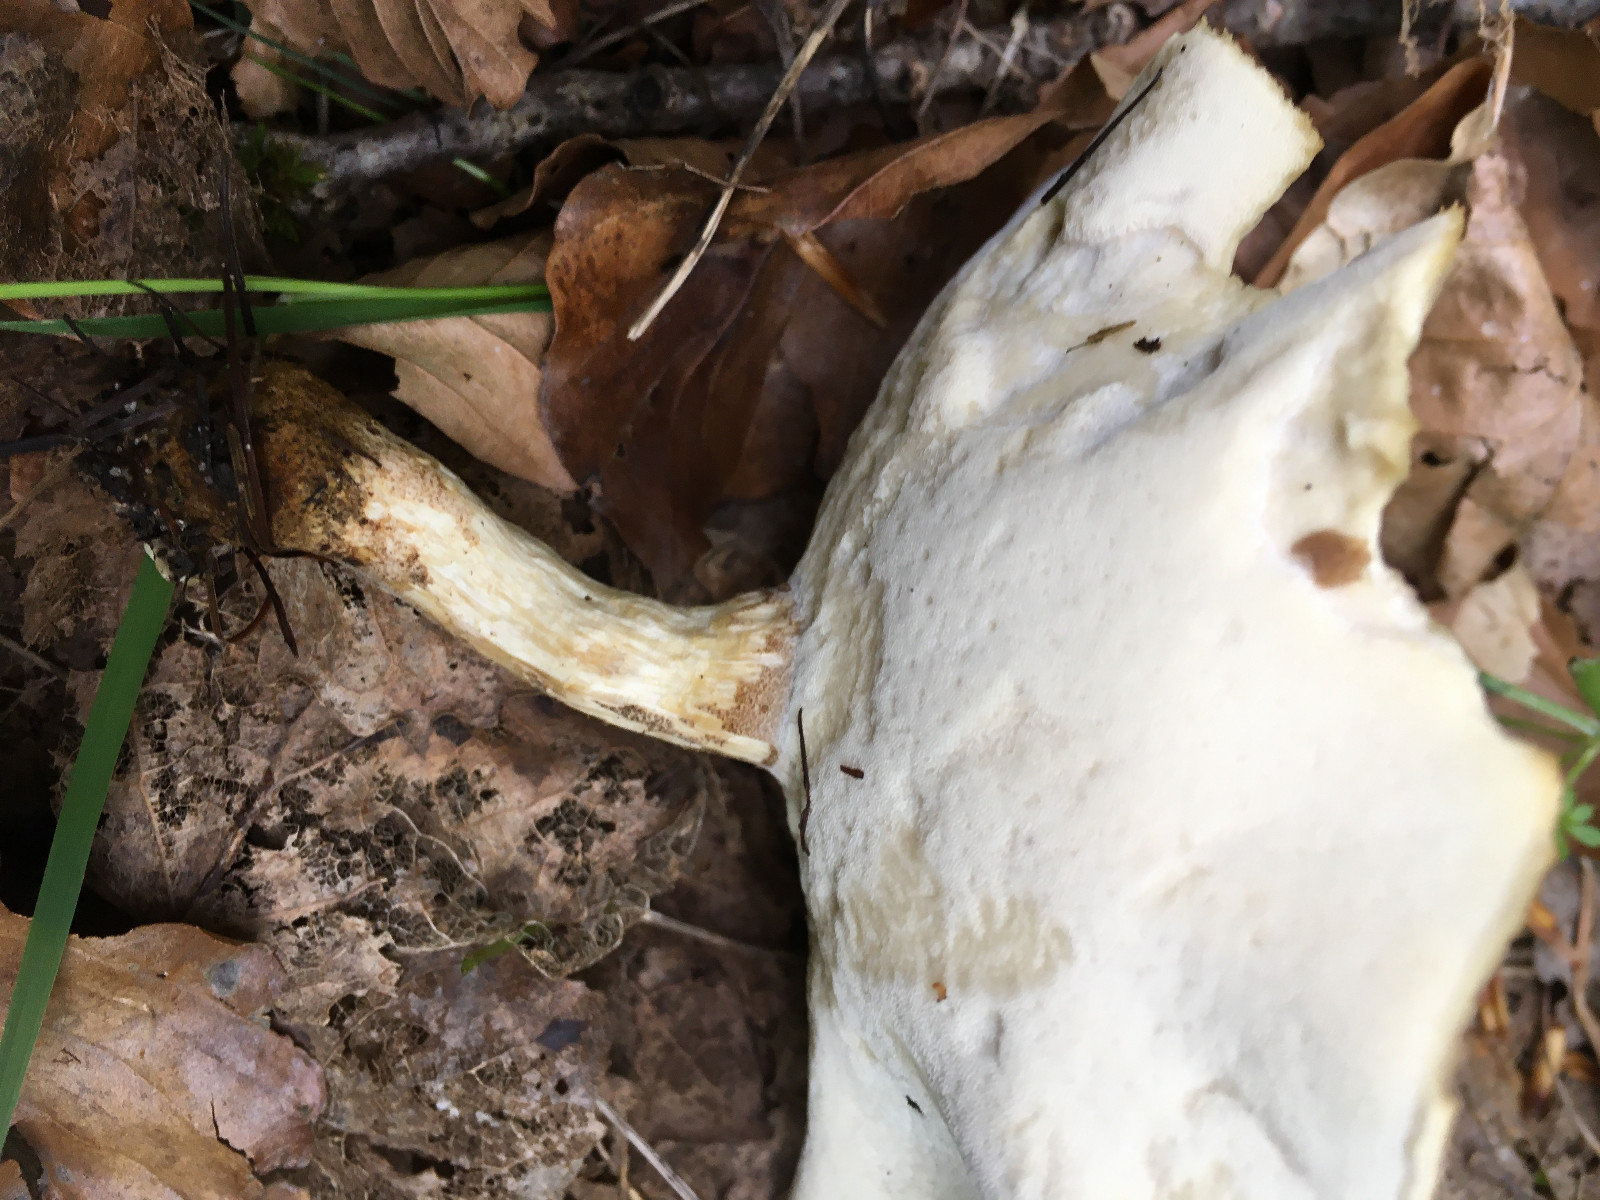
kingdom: Fungi
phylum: Basidiomycota
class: Agaricomycetes
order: Polyporales
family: Polyporaceae
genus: Lentinus
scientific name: Lentinus substrictus
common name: forårs-stilkporesvamp
